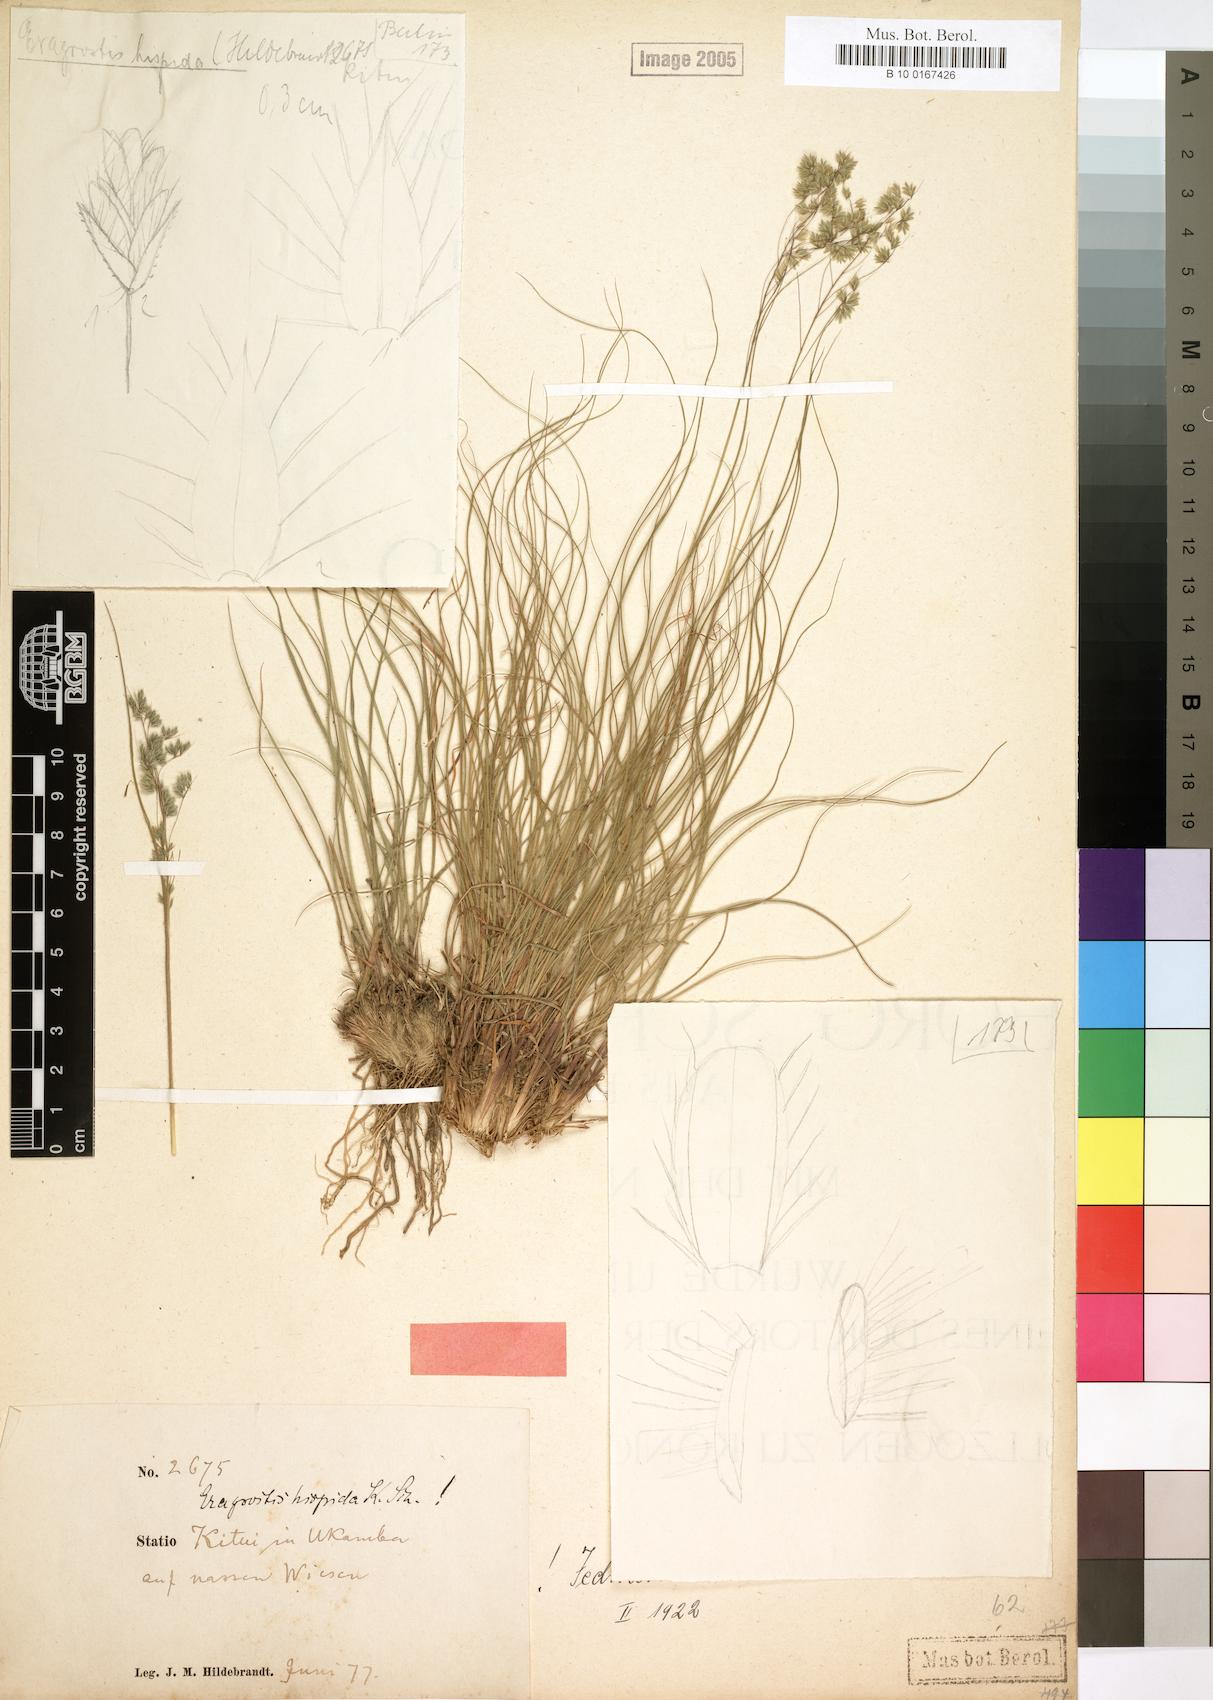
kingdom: Plantae
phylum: Tracheophyta
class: Liliopsida
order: Poales
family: Poaceae
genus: Eragrostis
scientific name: Eragrostis hispida
